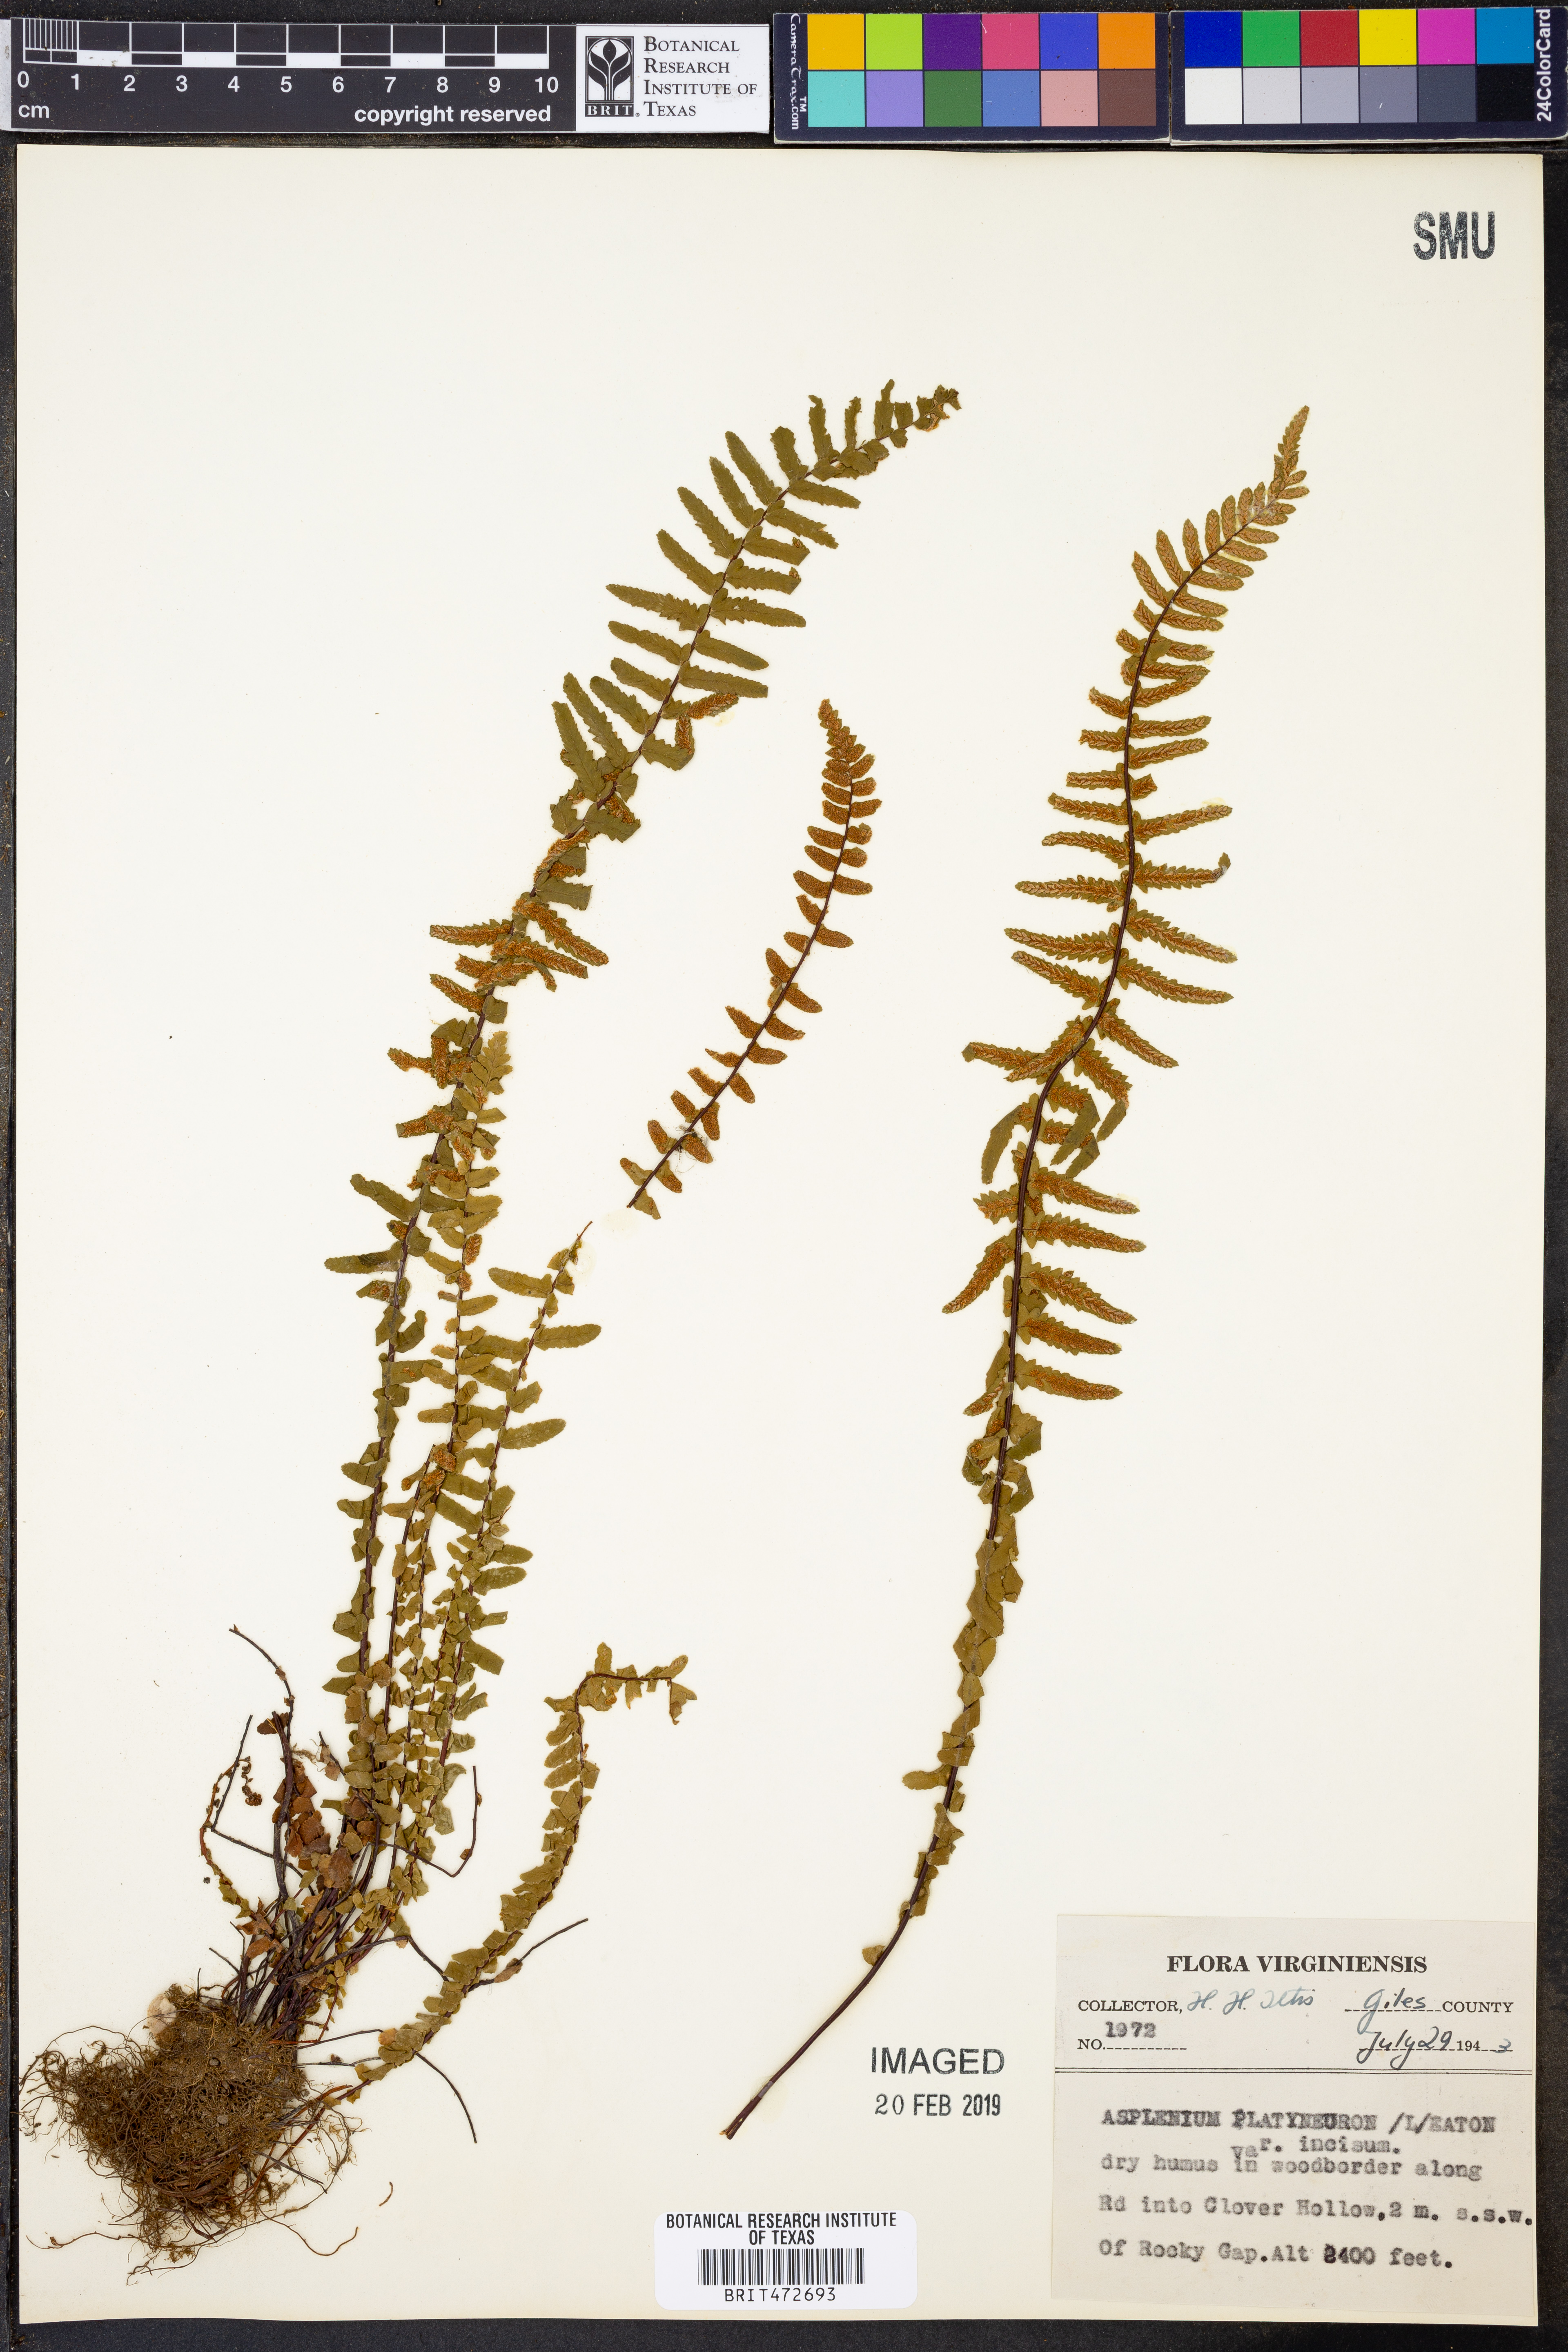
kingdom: Plantae
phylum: Tracheophyta
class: Polypodiopsida
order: Polypodiales
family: Aspleniaceae
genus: Asplenium
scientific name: Asplenium platyneuron
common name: Ebony spleenwort
